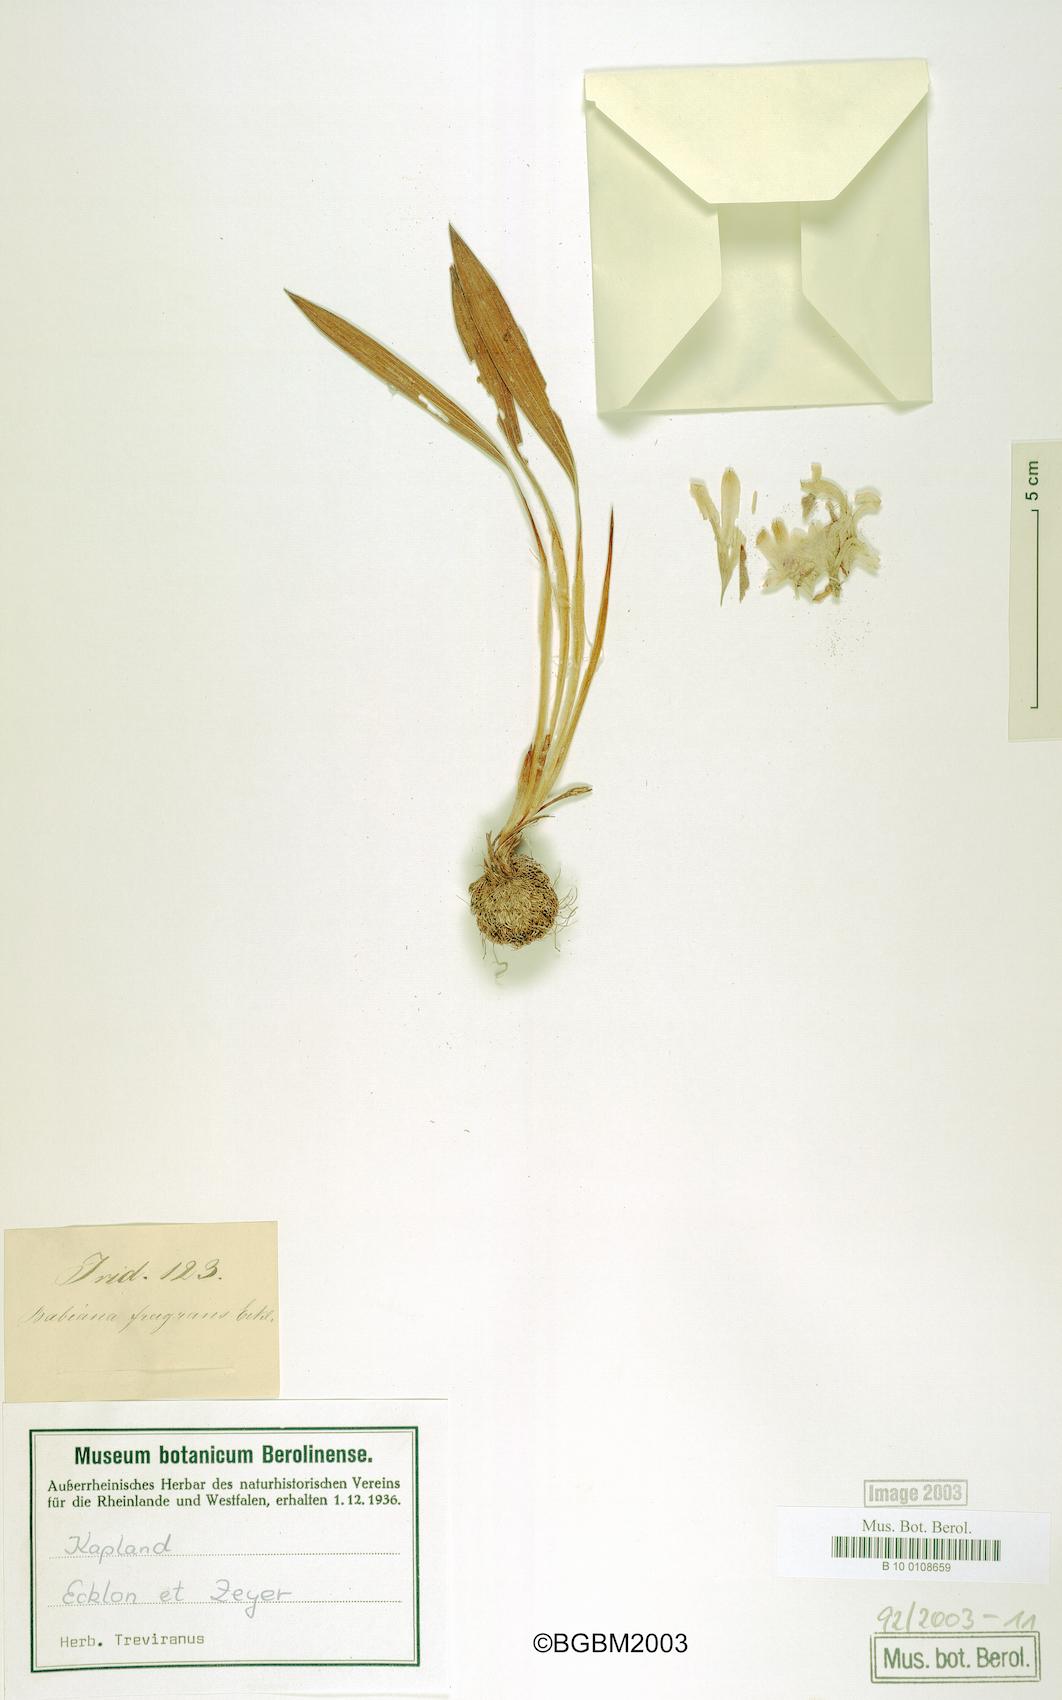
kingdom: Plantae
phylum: Tracheophyta
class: Liliopsida
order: Asparagales
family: Iridaceae
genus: Babiana
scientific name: Babiana fragrans
